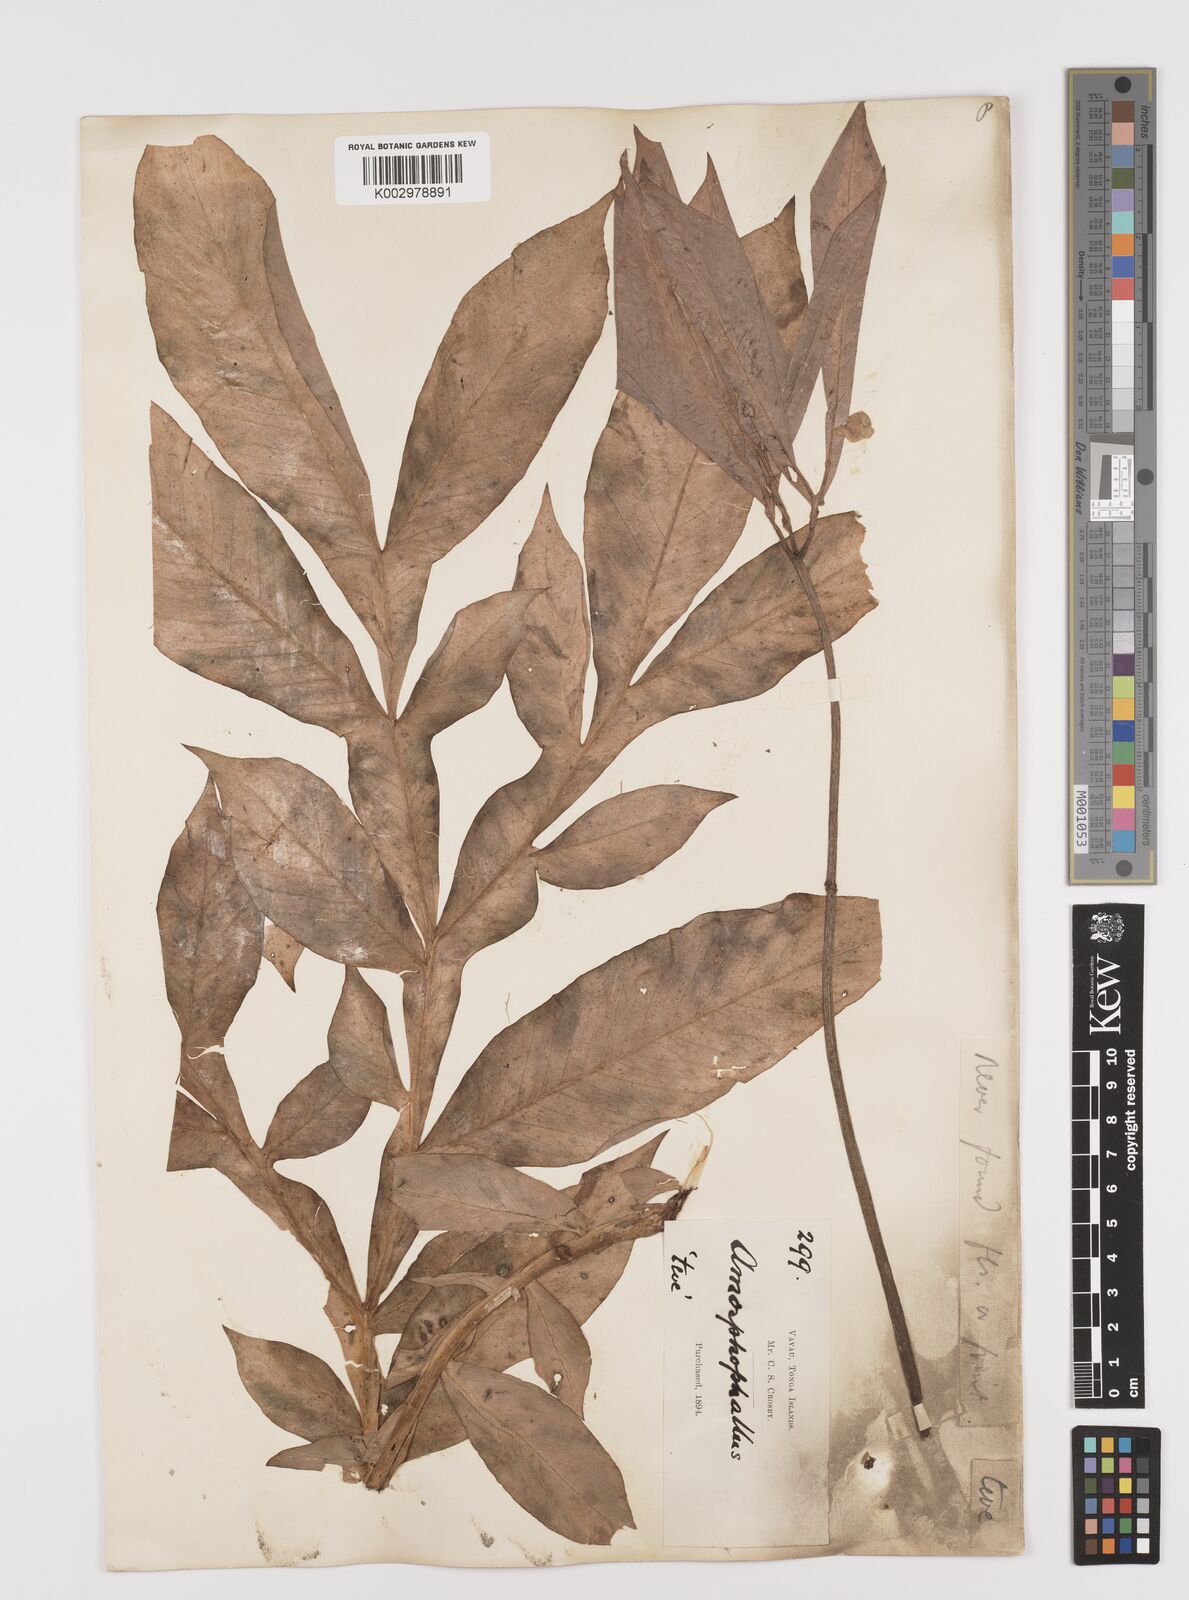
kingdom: Plantae
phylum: Tracheophyta
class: Liliopsida
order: Alismatales
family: Araceae
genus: Amorphophallus
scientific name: Amorphophallus paeoniifolius
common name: Telinga-potato
